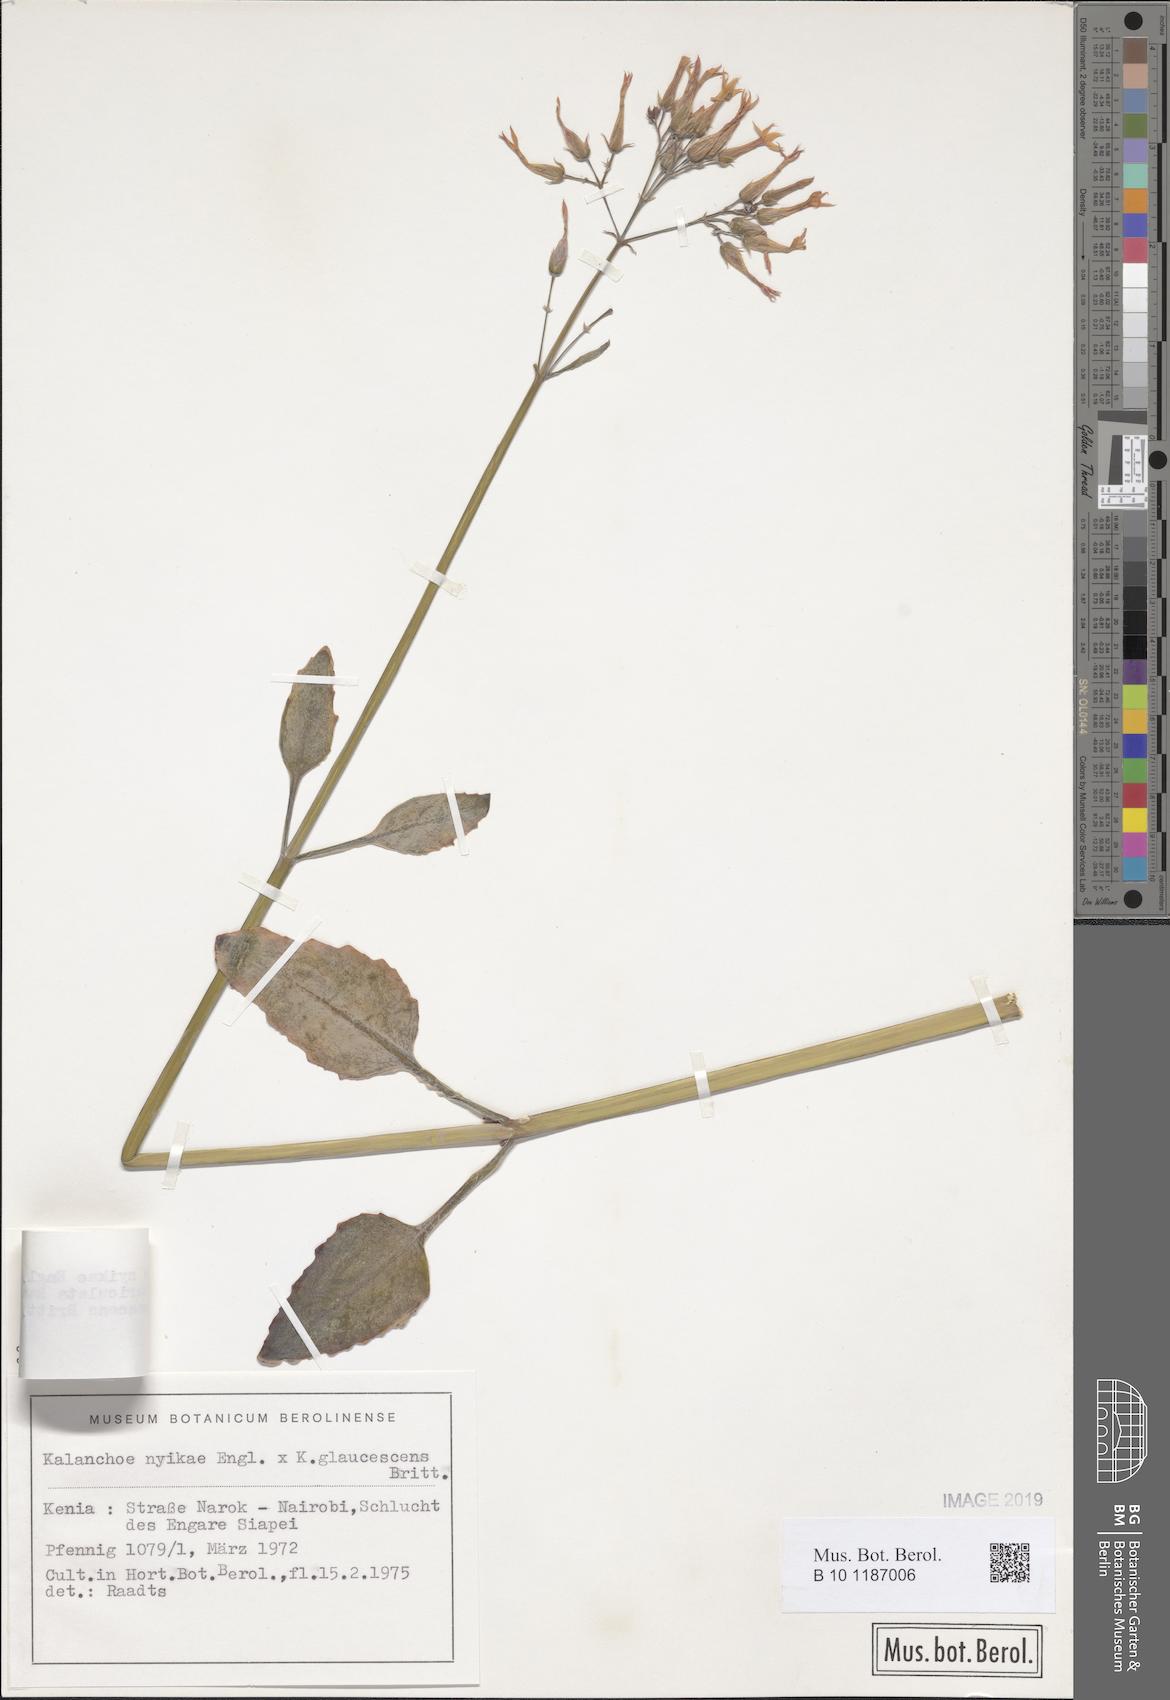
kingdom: Plantae
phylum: Tracheophyta
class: Magnoliopsida
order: Saxifragales
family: Crassulaceae
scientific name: Crassulaceae
